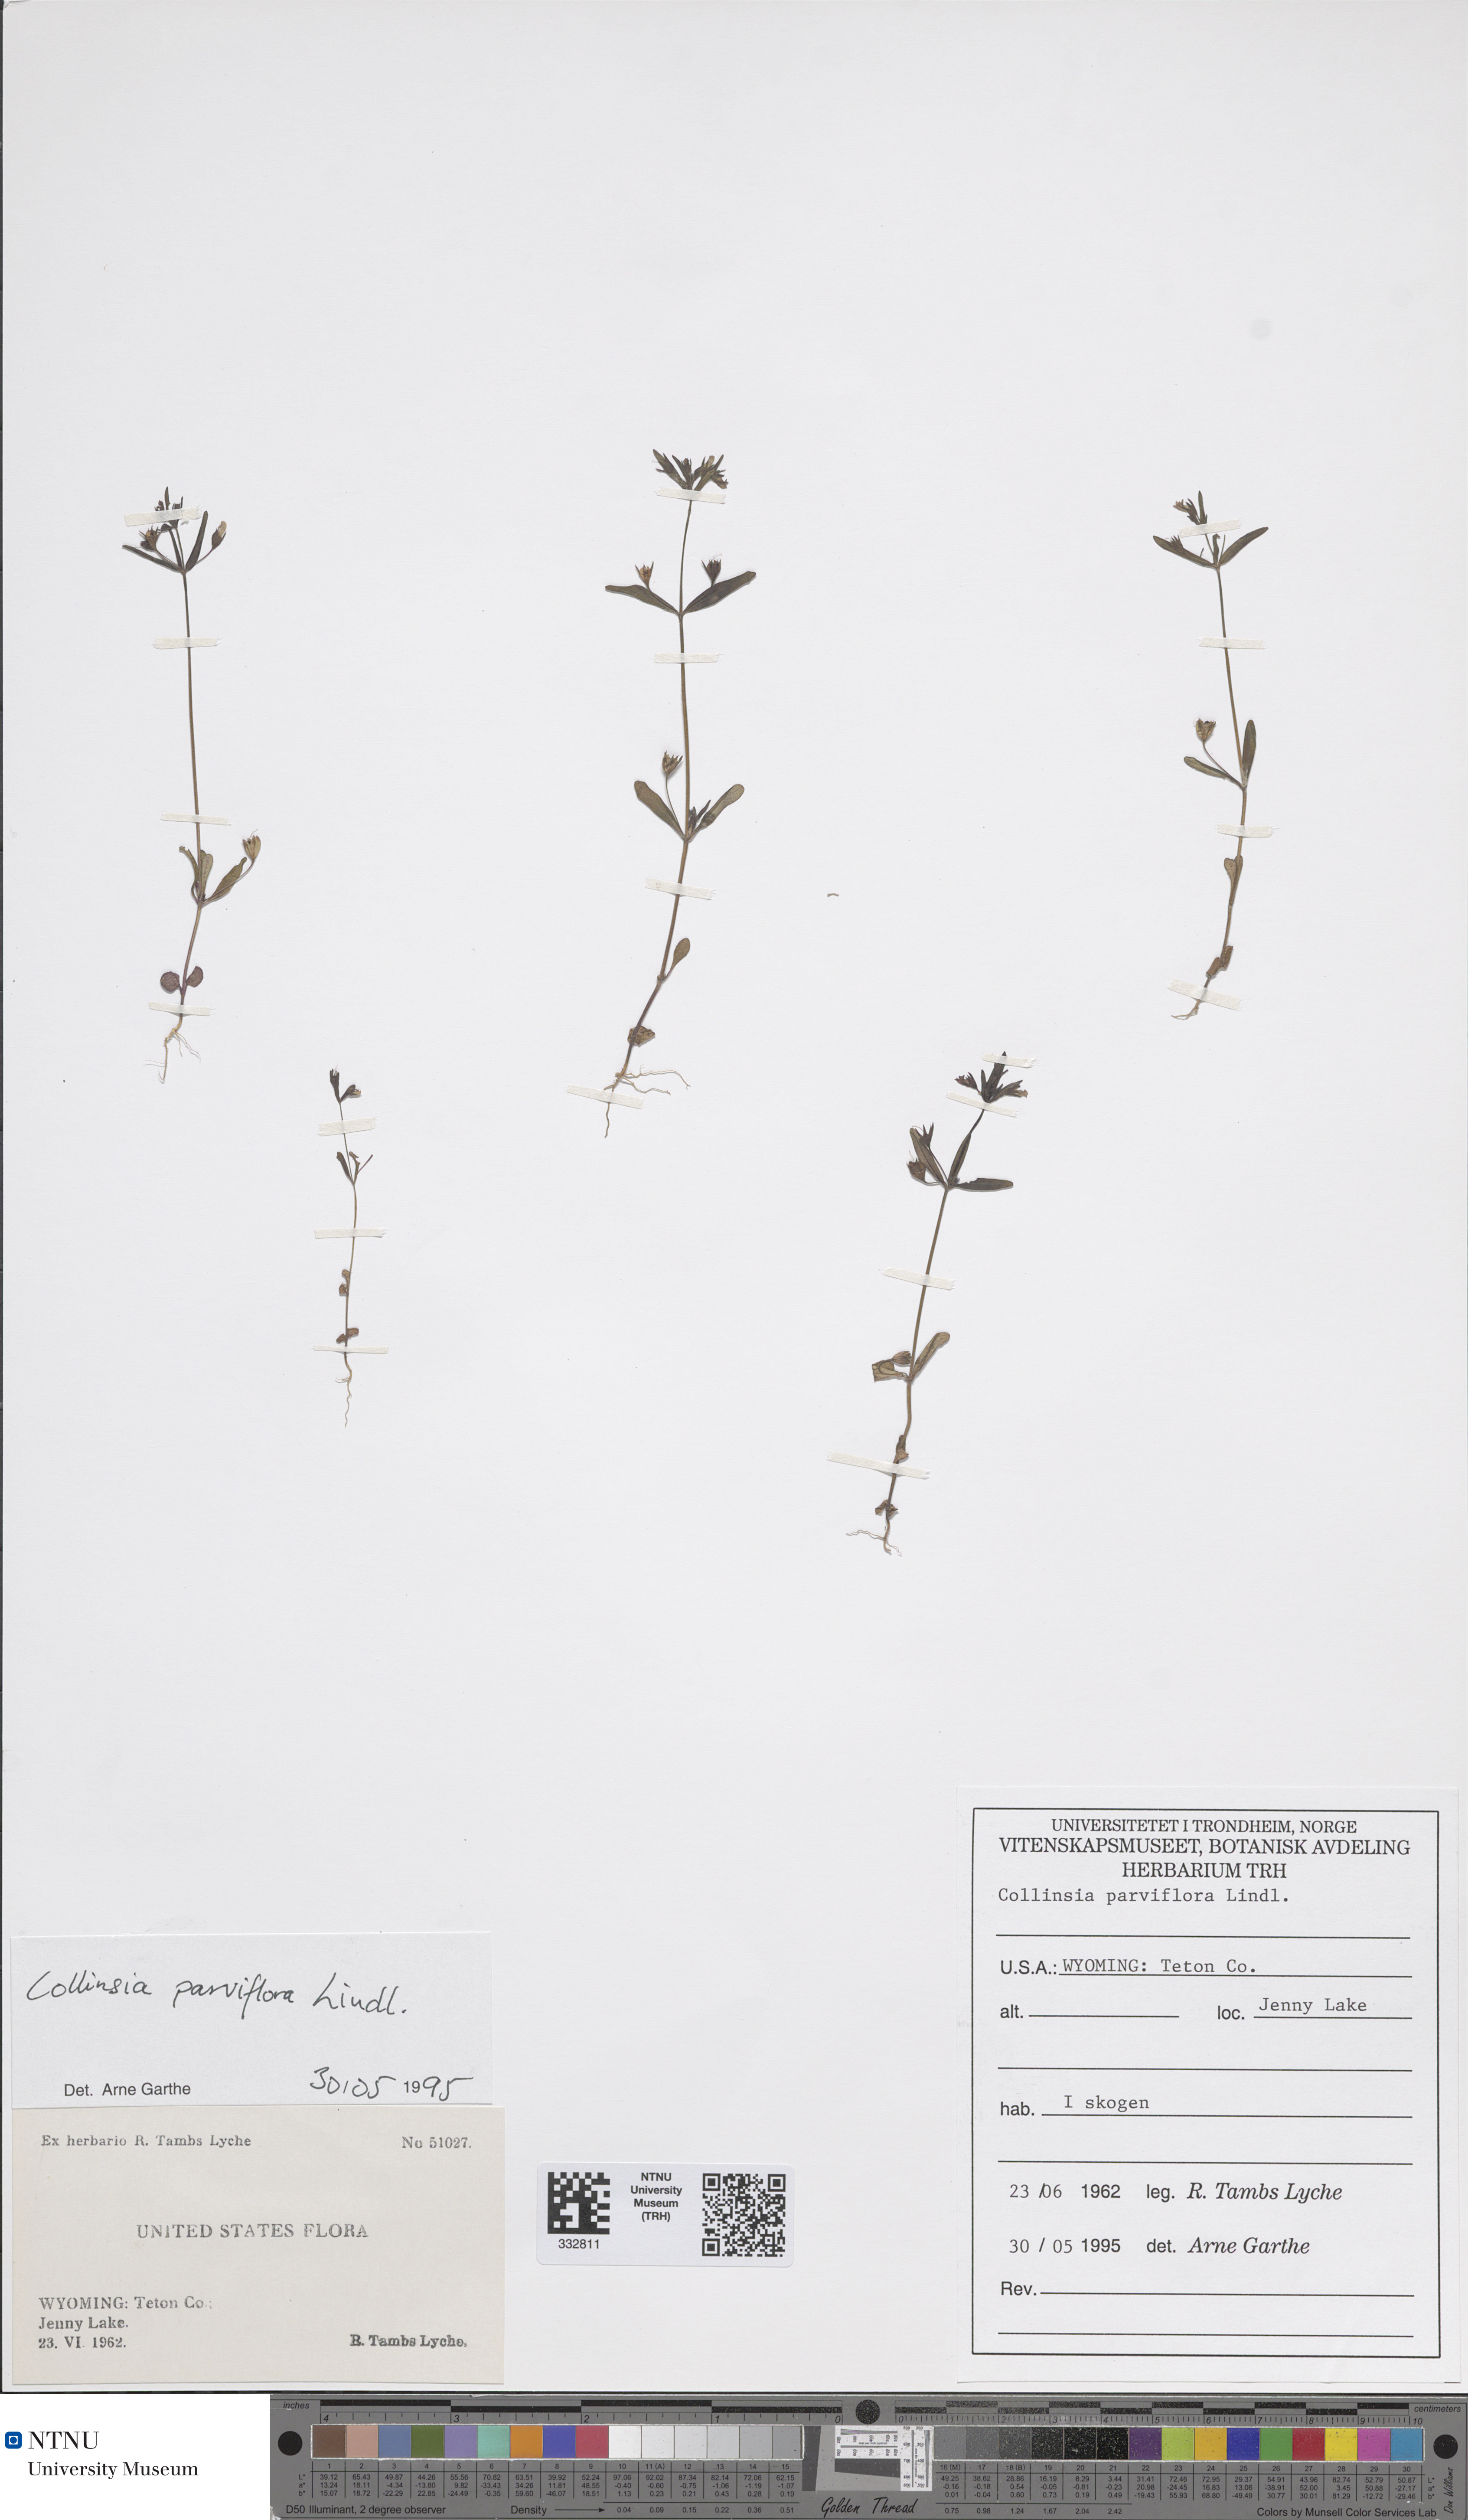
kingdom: Plantae
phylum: Tracheophyta
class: Magnoliopsida
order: Lamiales
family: Plantaginaceae
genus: Collinsia
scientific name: Collinsia parviflora
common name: Blue-lips
